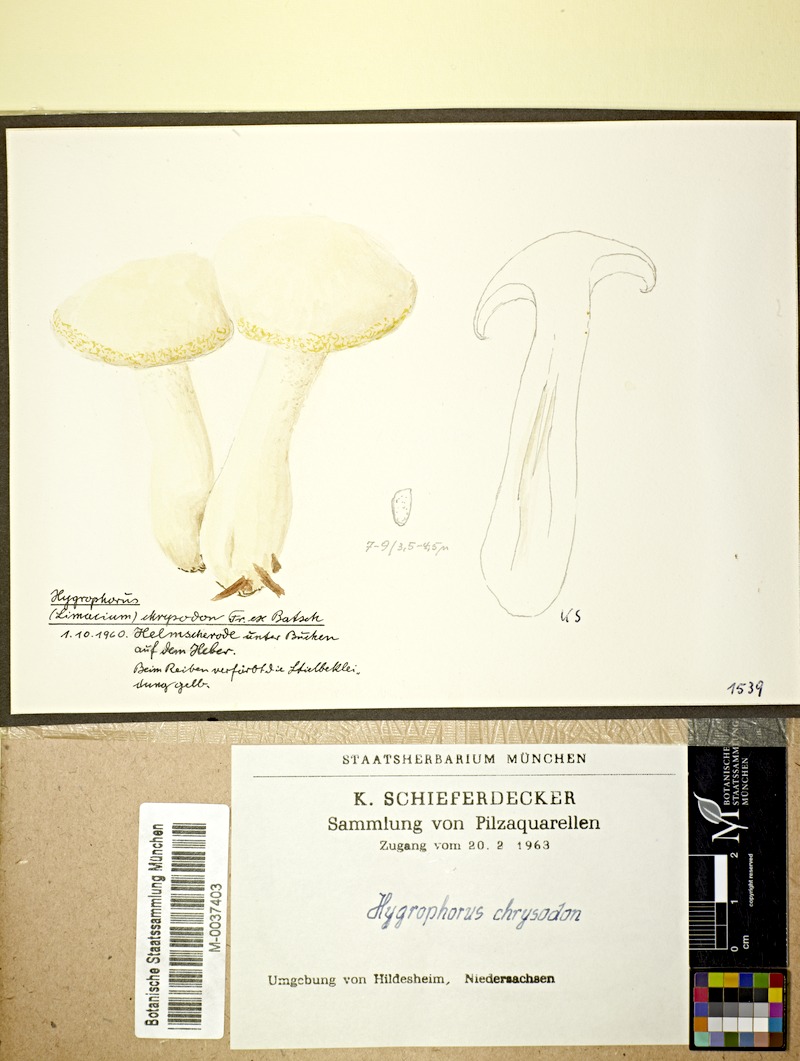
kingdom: Plantae
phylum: Tracheophyta
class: Magnoliopsida
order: Fagales
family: Fagaceae
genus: Fagus
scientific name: Fagus
